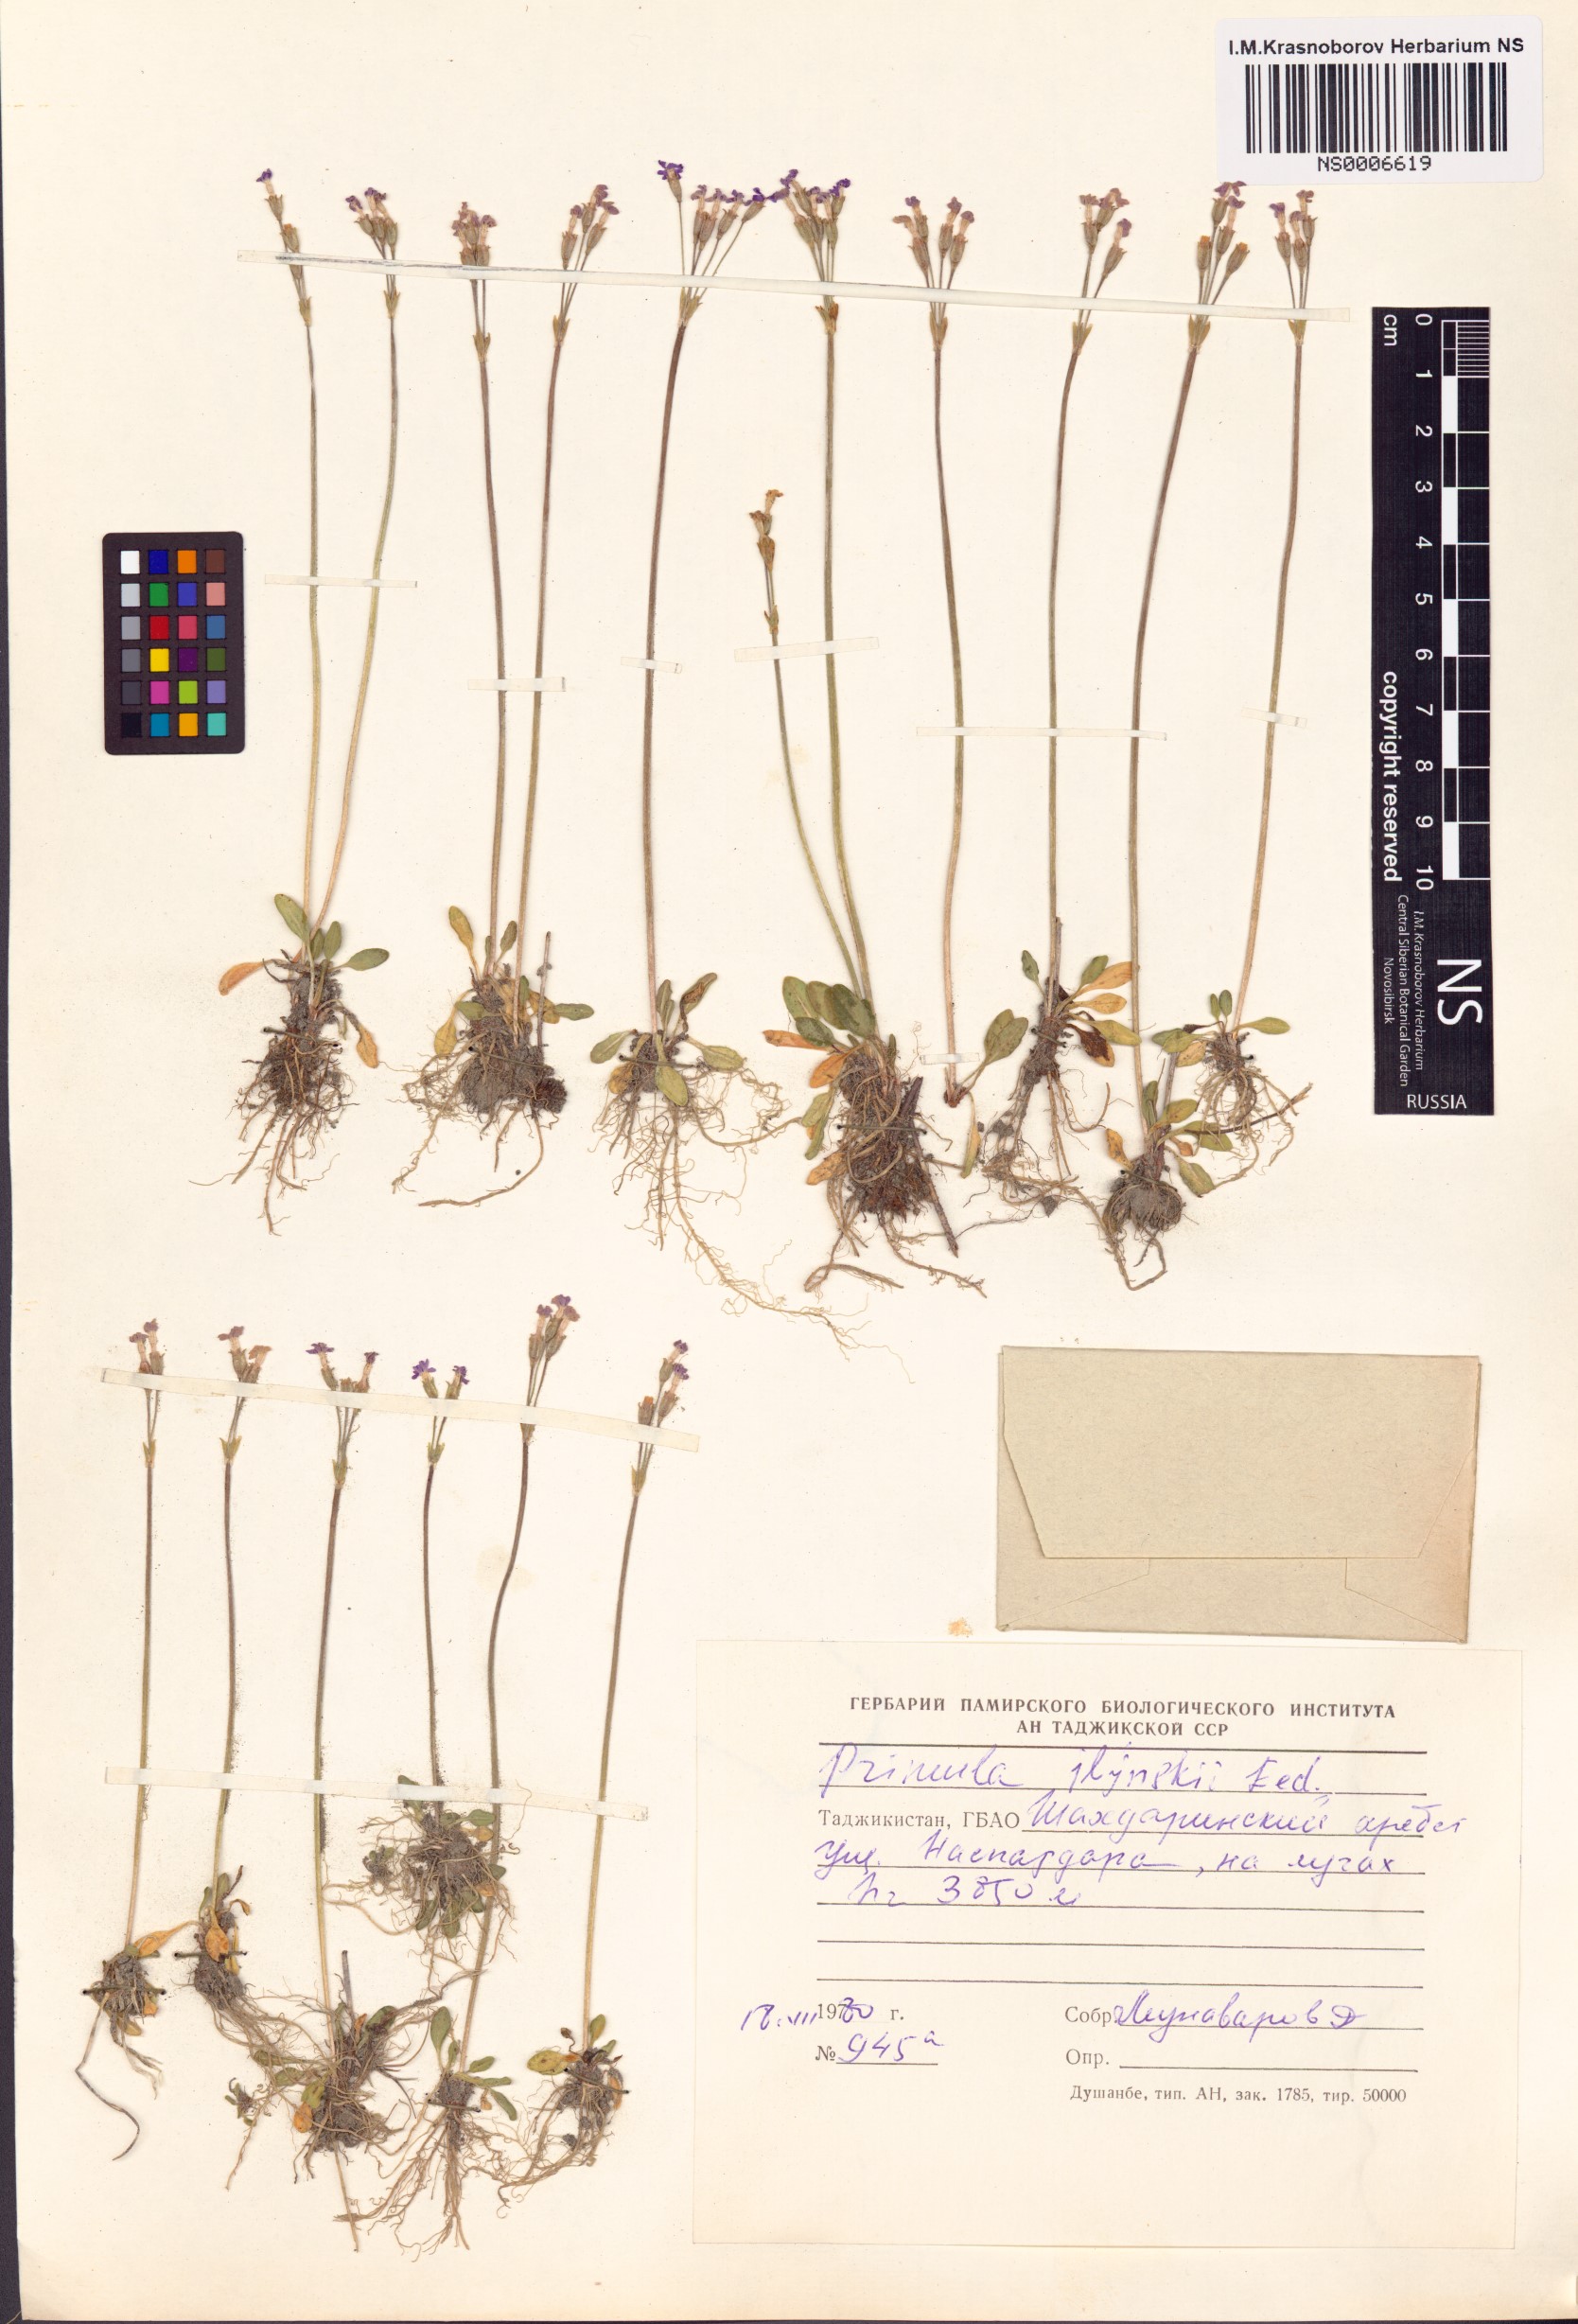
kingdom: Plantae
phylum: Tracheophyta
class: Magnoliopsida
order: Ericales
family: Primulaceae
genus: Primula
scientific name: Primula iljinskii
